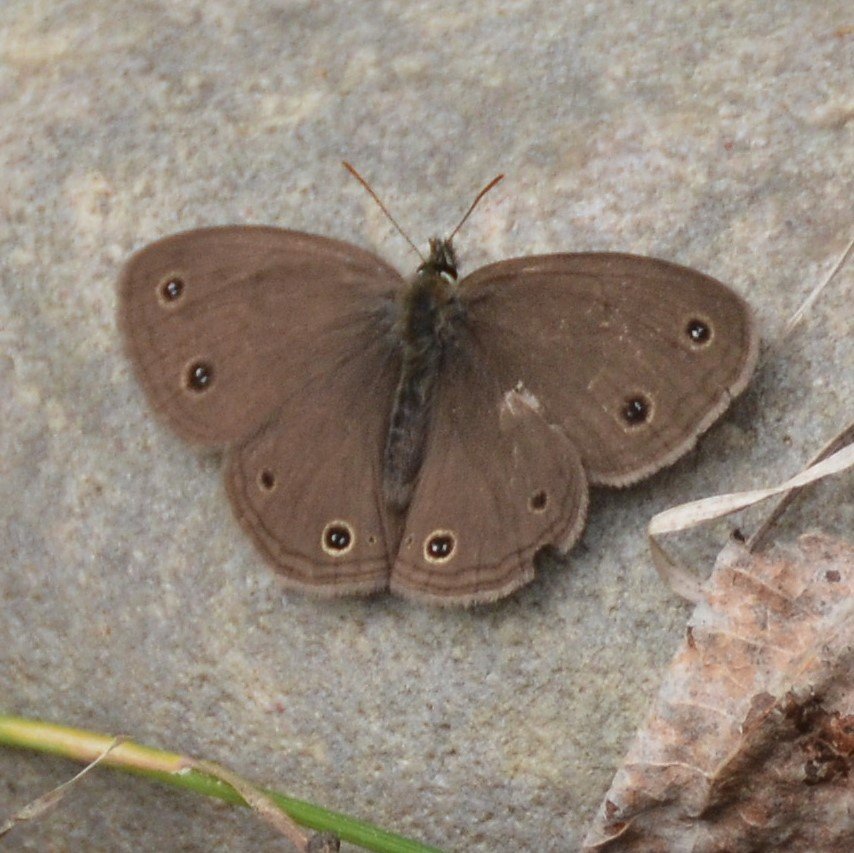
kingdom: Animalia
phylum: Arthropoda
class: Insecta
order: Lepidoptera
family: Nymphalidae
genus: Euptychia
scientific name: Euptychia cymela
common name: Little Wood Satyr
